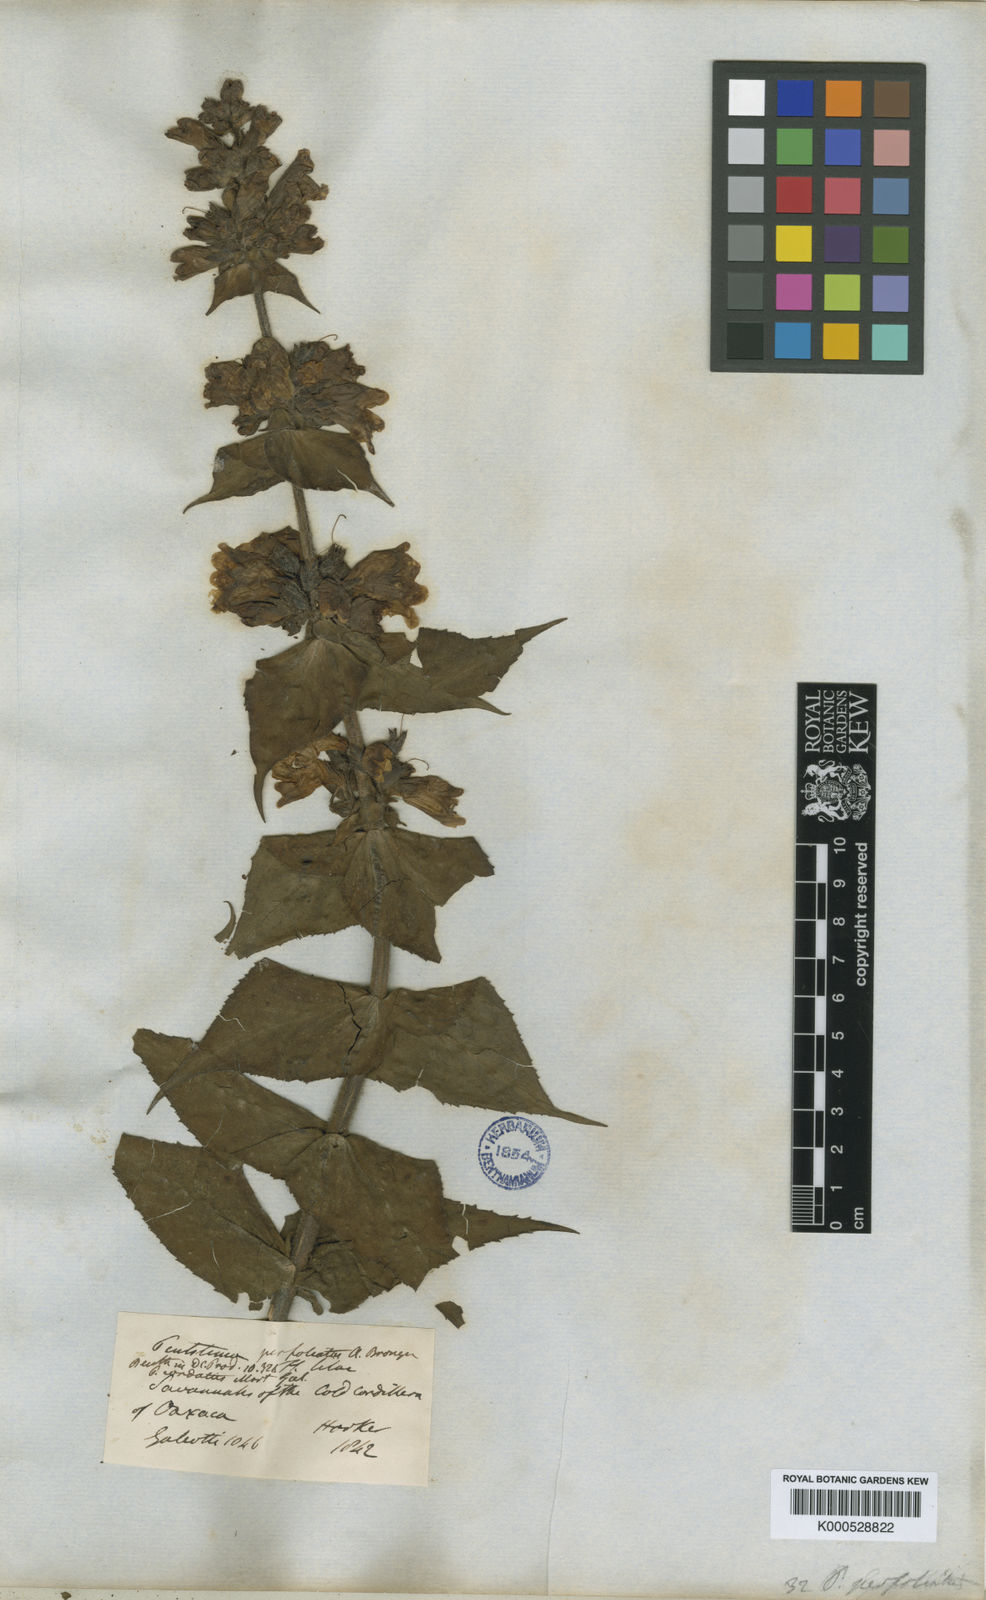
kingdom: Plantae
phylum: Tracheophyta
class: Magnoliopsida
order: Lamiales
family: Plantaginaceae
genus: Penstemon
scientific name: Penstemon perfoliatus
